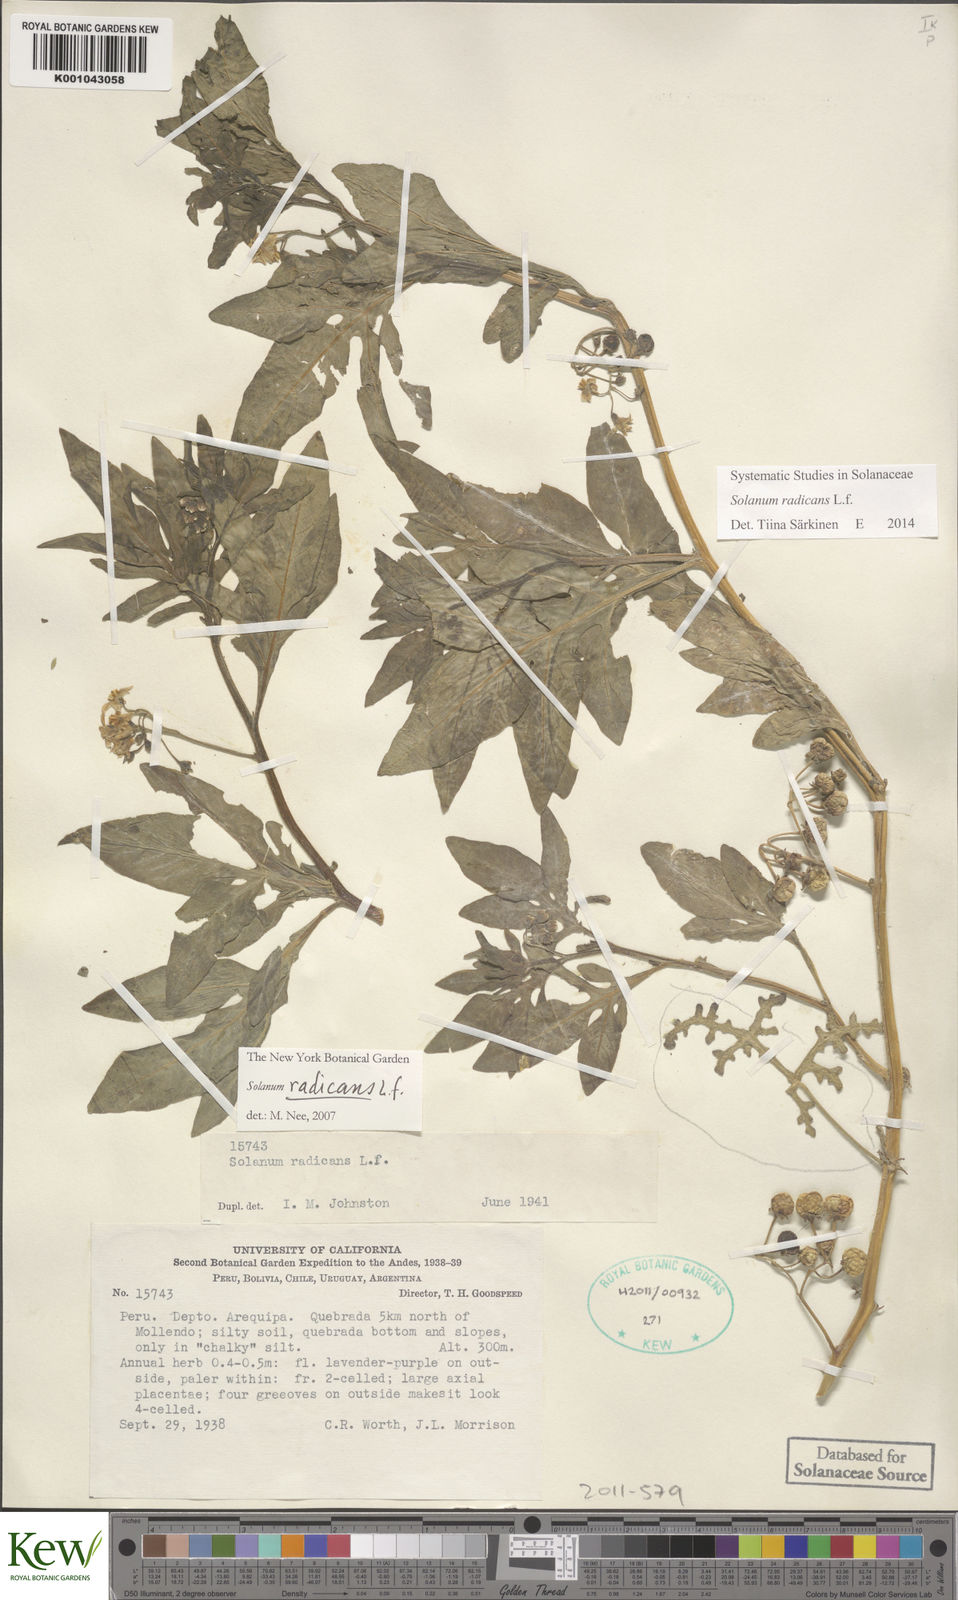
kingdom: Plantae
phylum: Tracheophyta
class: Magnoliopsida
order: Solanales
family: Solanaceae
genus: Solanum
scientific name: Solanum radicans
